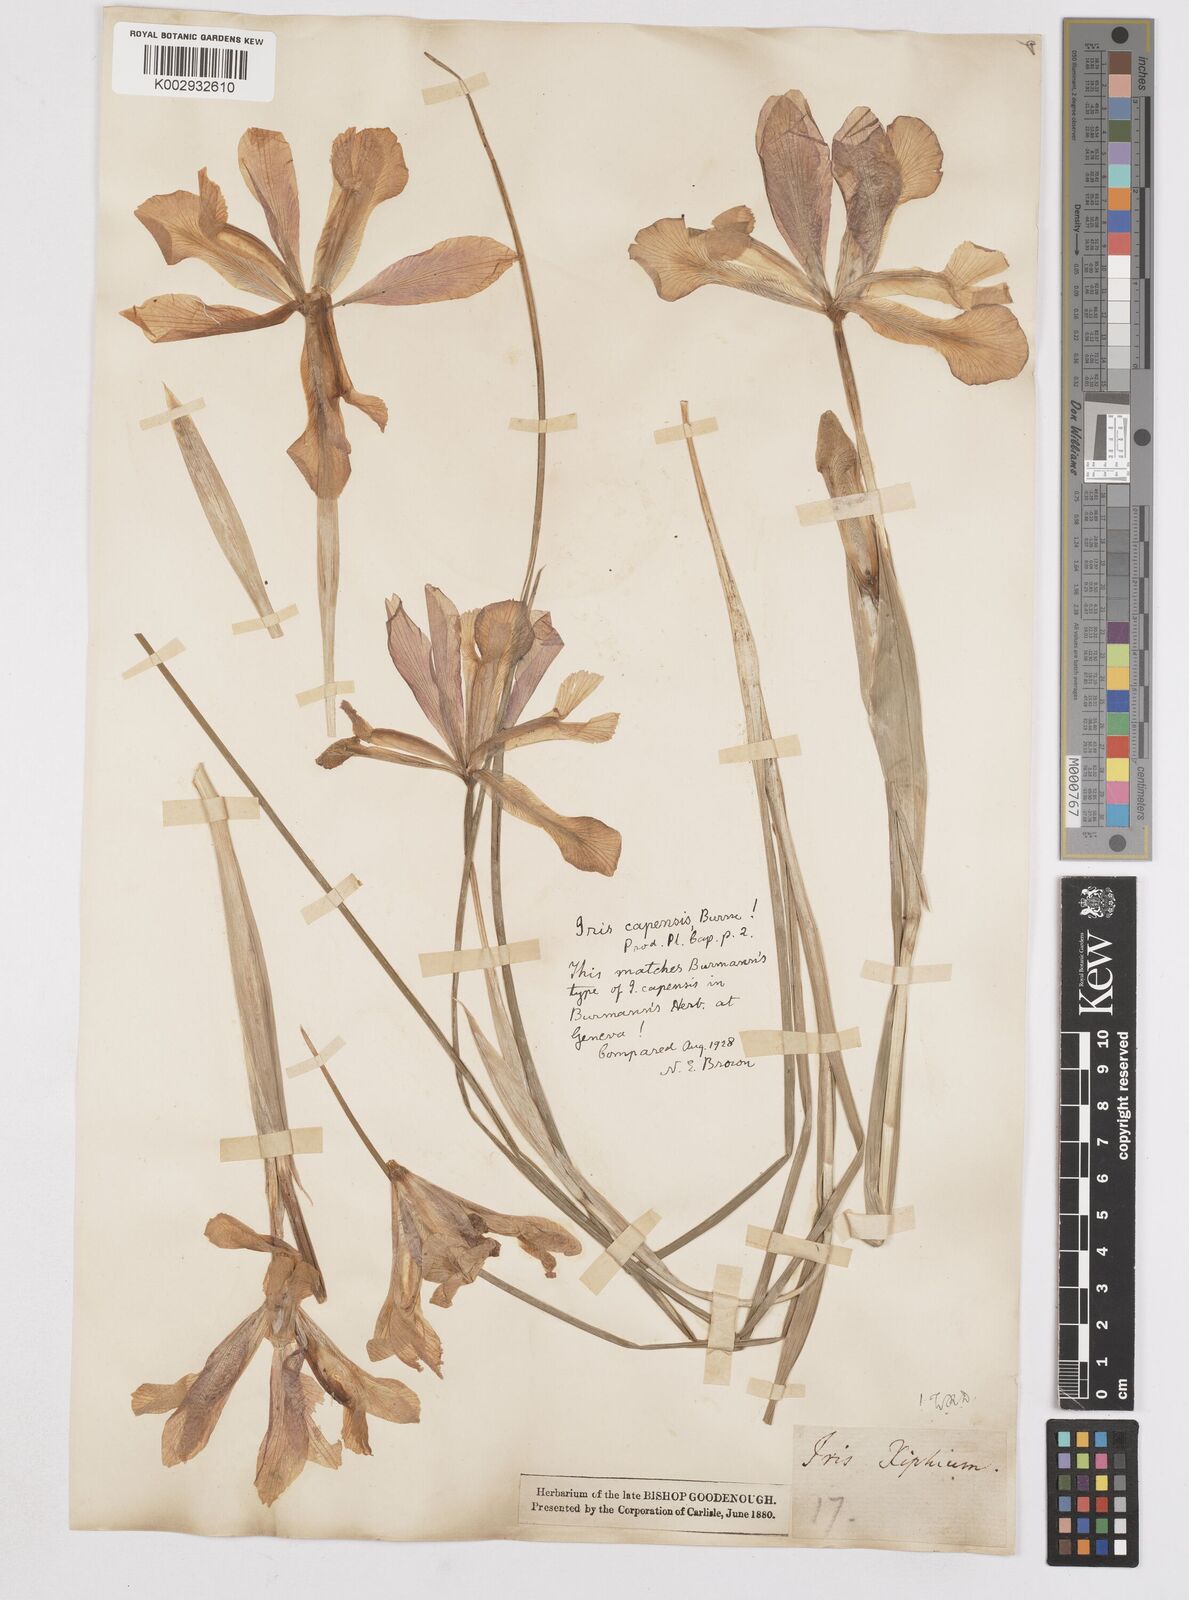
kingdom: Plantae
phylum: Tracheophyta
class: Liliopsida
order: Asparagales
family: Iridaceae
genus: Iris
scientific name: Iris xiphium
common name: Spanish iris
